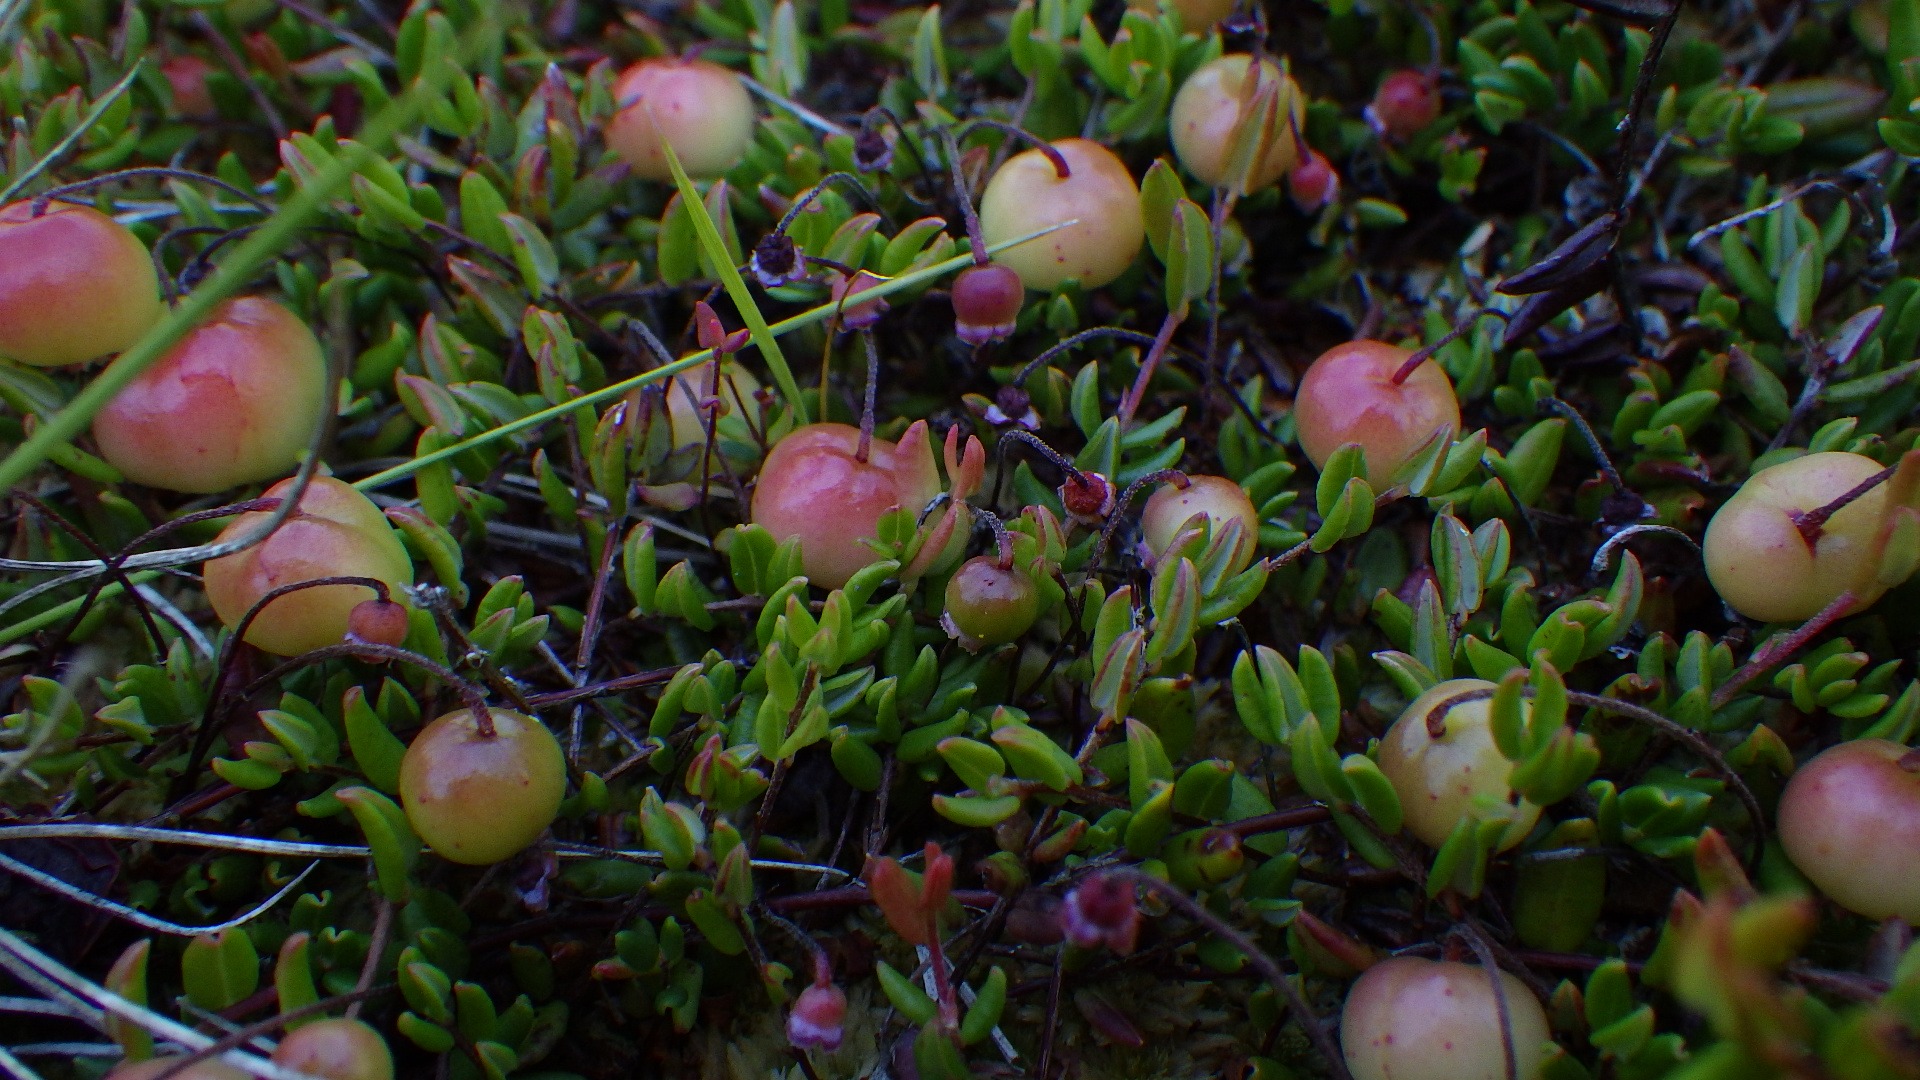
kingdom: Plantae
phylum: Tracheophyta
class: Magnoliopsida
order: Ericales
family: Ericaceae
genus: Vaccinium
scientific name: Vaccinium oxycoccos
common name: Tranebær
